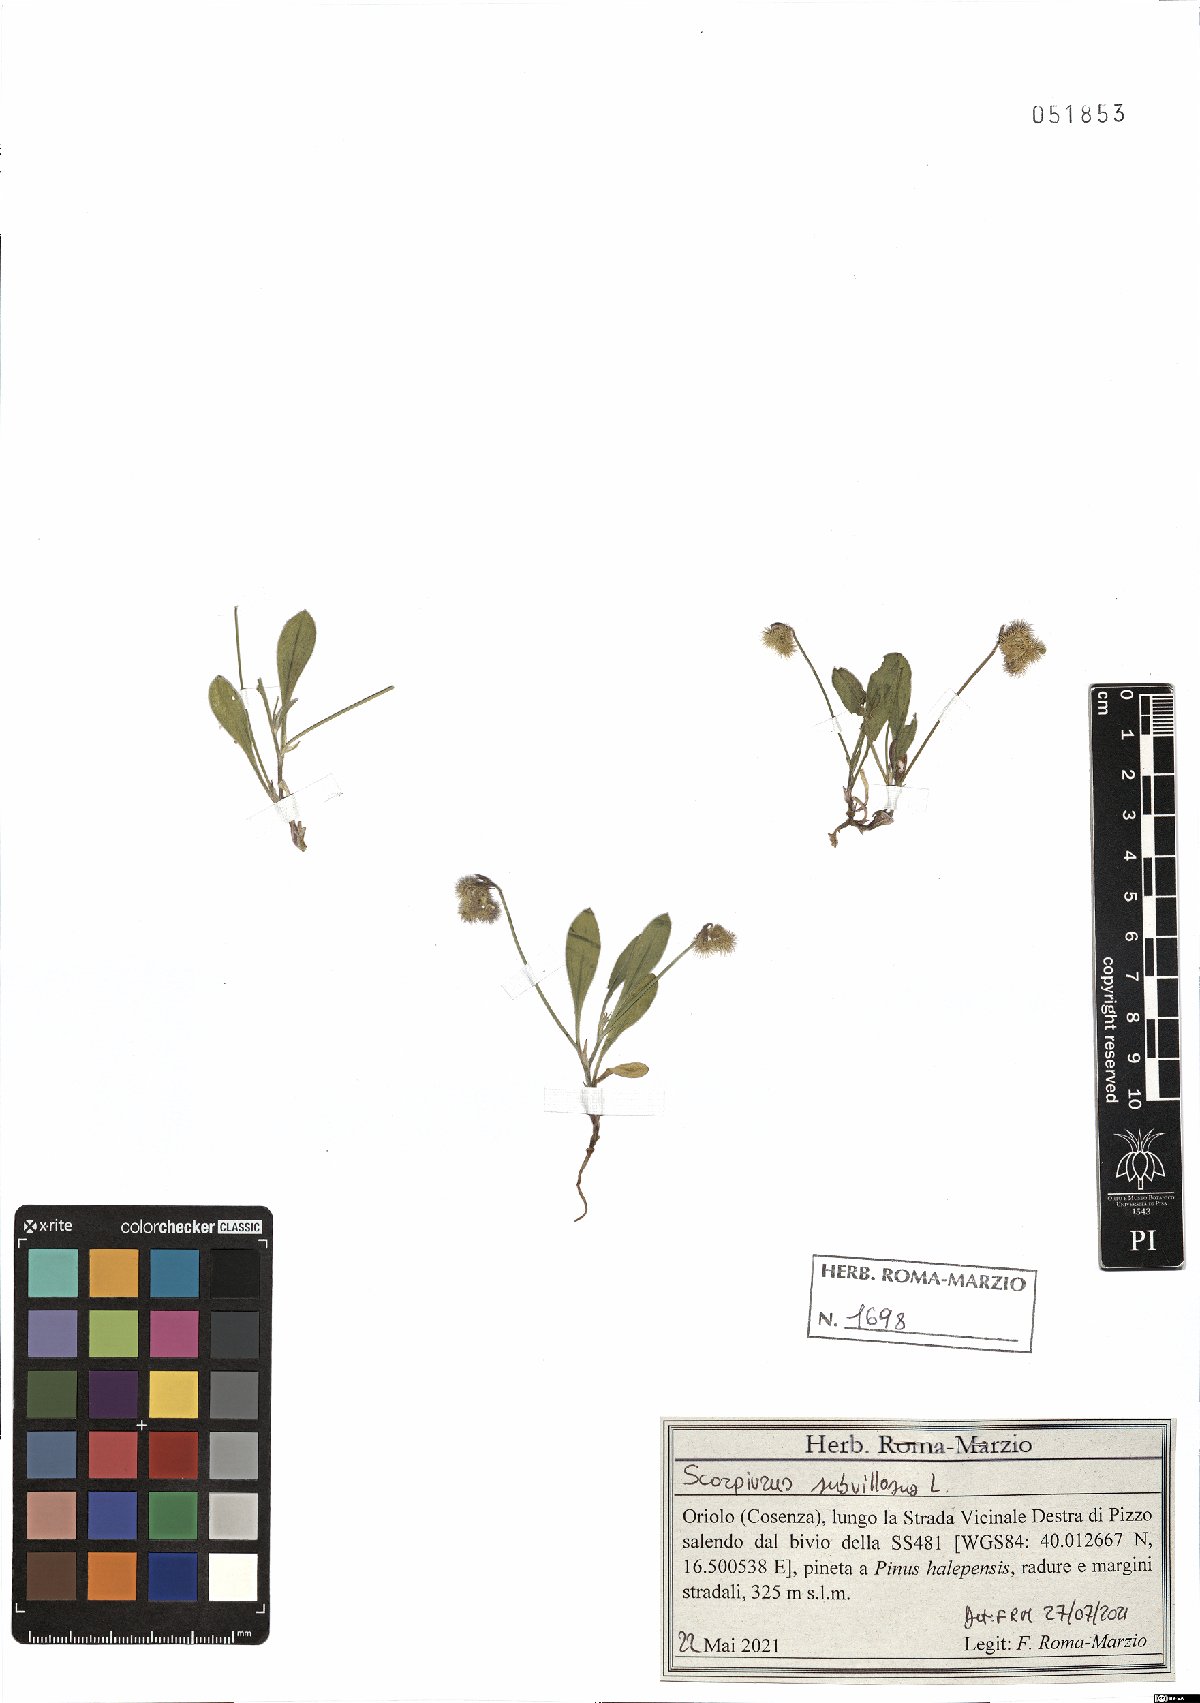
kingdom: Plantae
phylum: Tracheophyta
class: Magnoliopsida
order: Fabales
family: Fabaceae
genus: Scorpiurus
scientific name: Scorpiurus muricatus
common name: Caterpillar-plant
